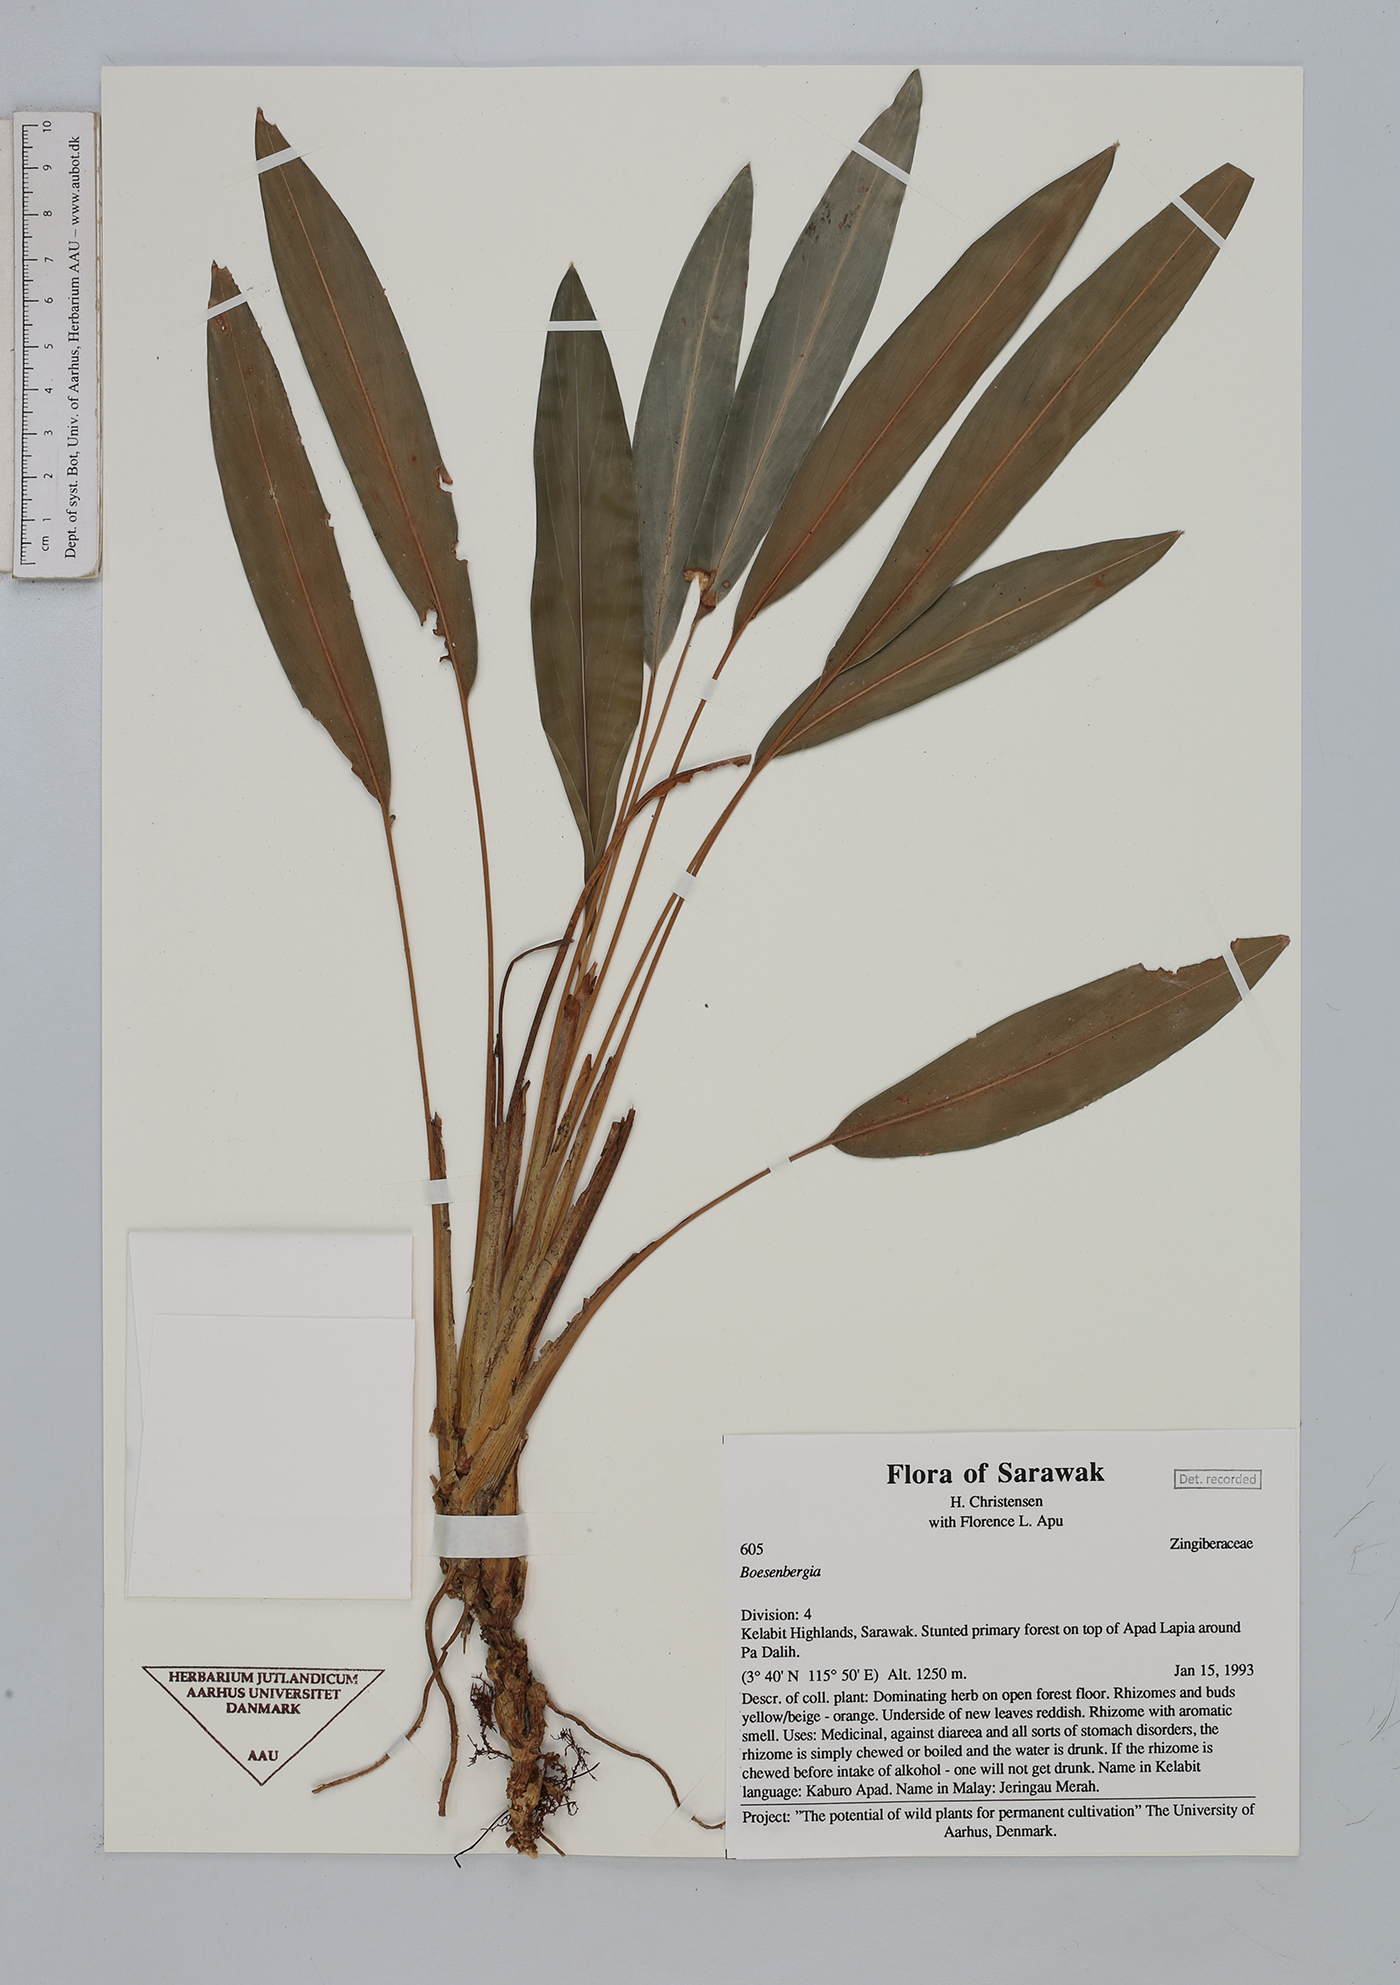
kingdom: Plantae
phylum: Tracheophyta
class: Liliopsida
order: Zingiberales
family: Zingiberaceae
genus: Boesenbergia
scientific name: Boesenbergia
